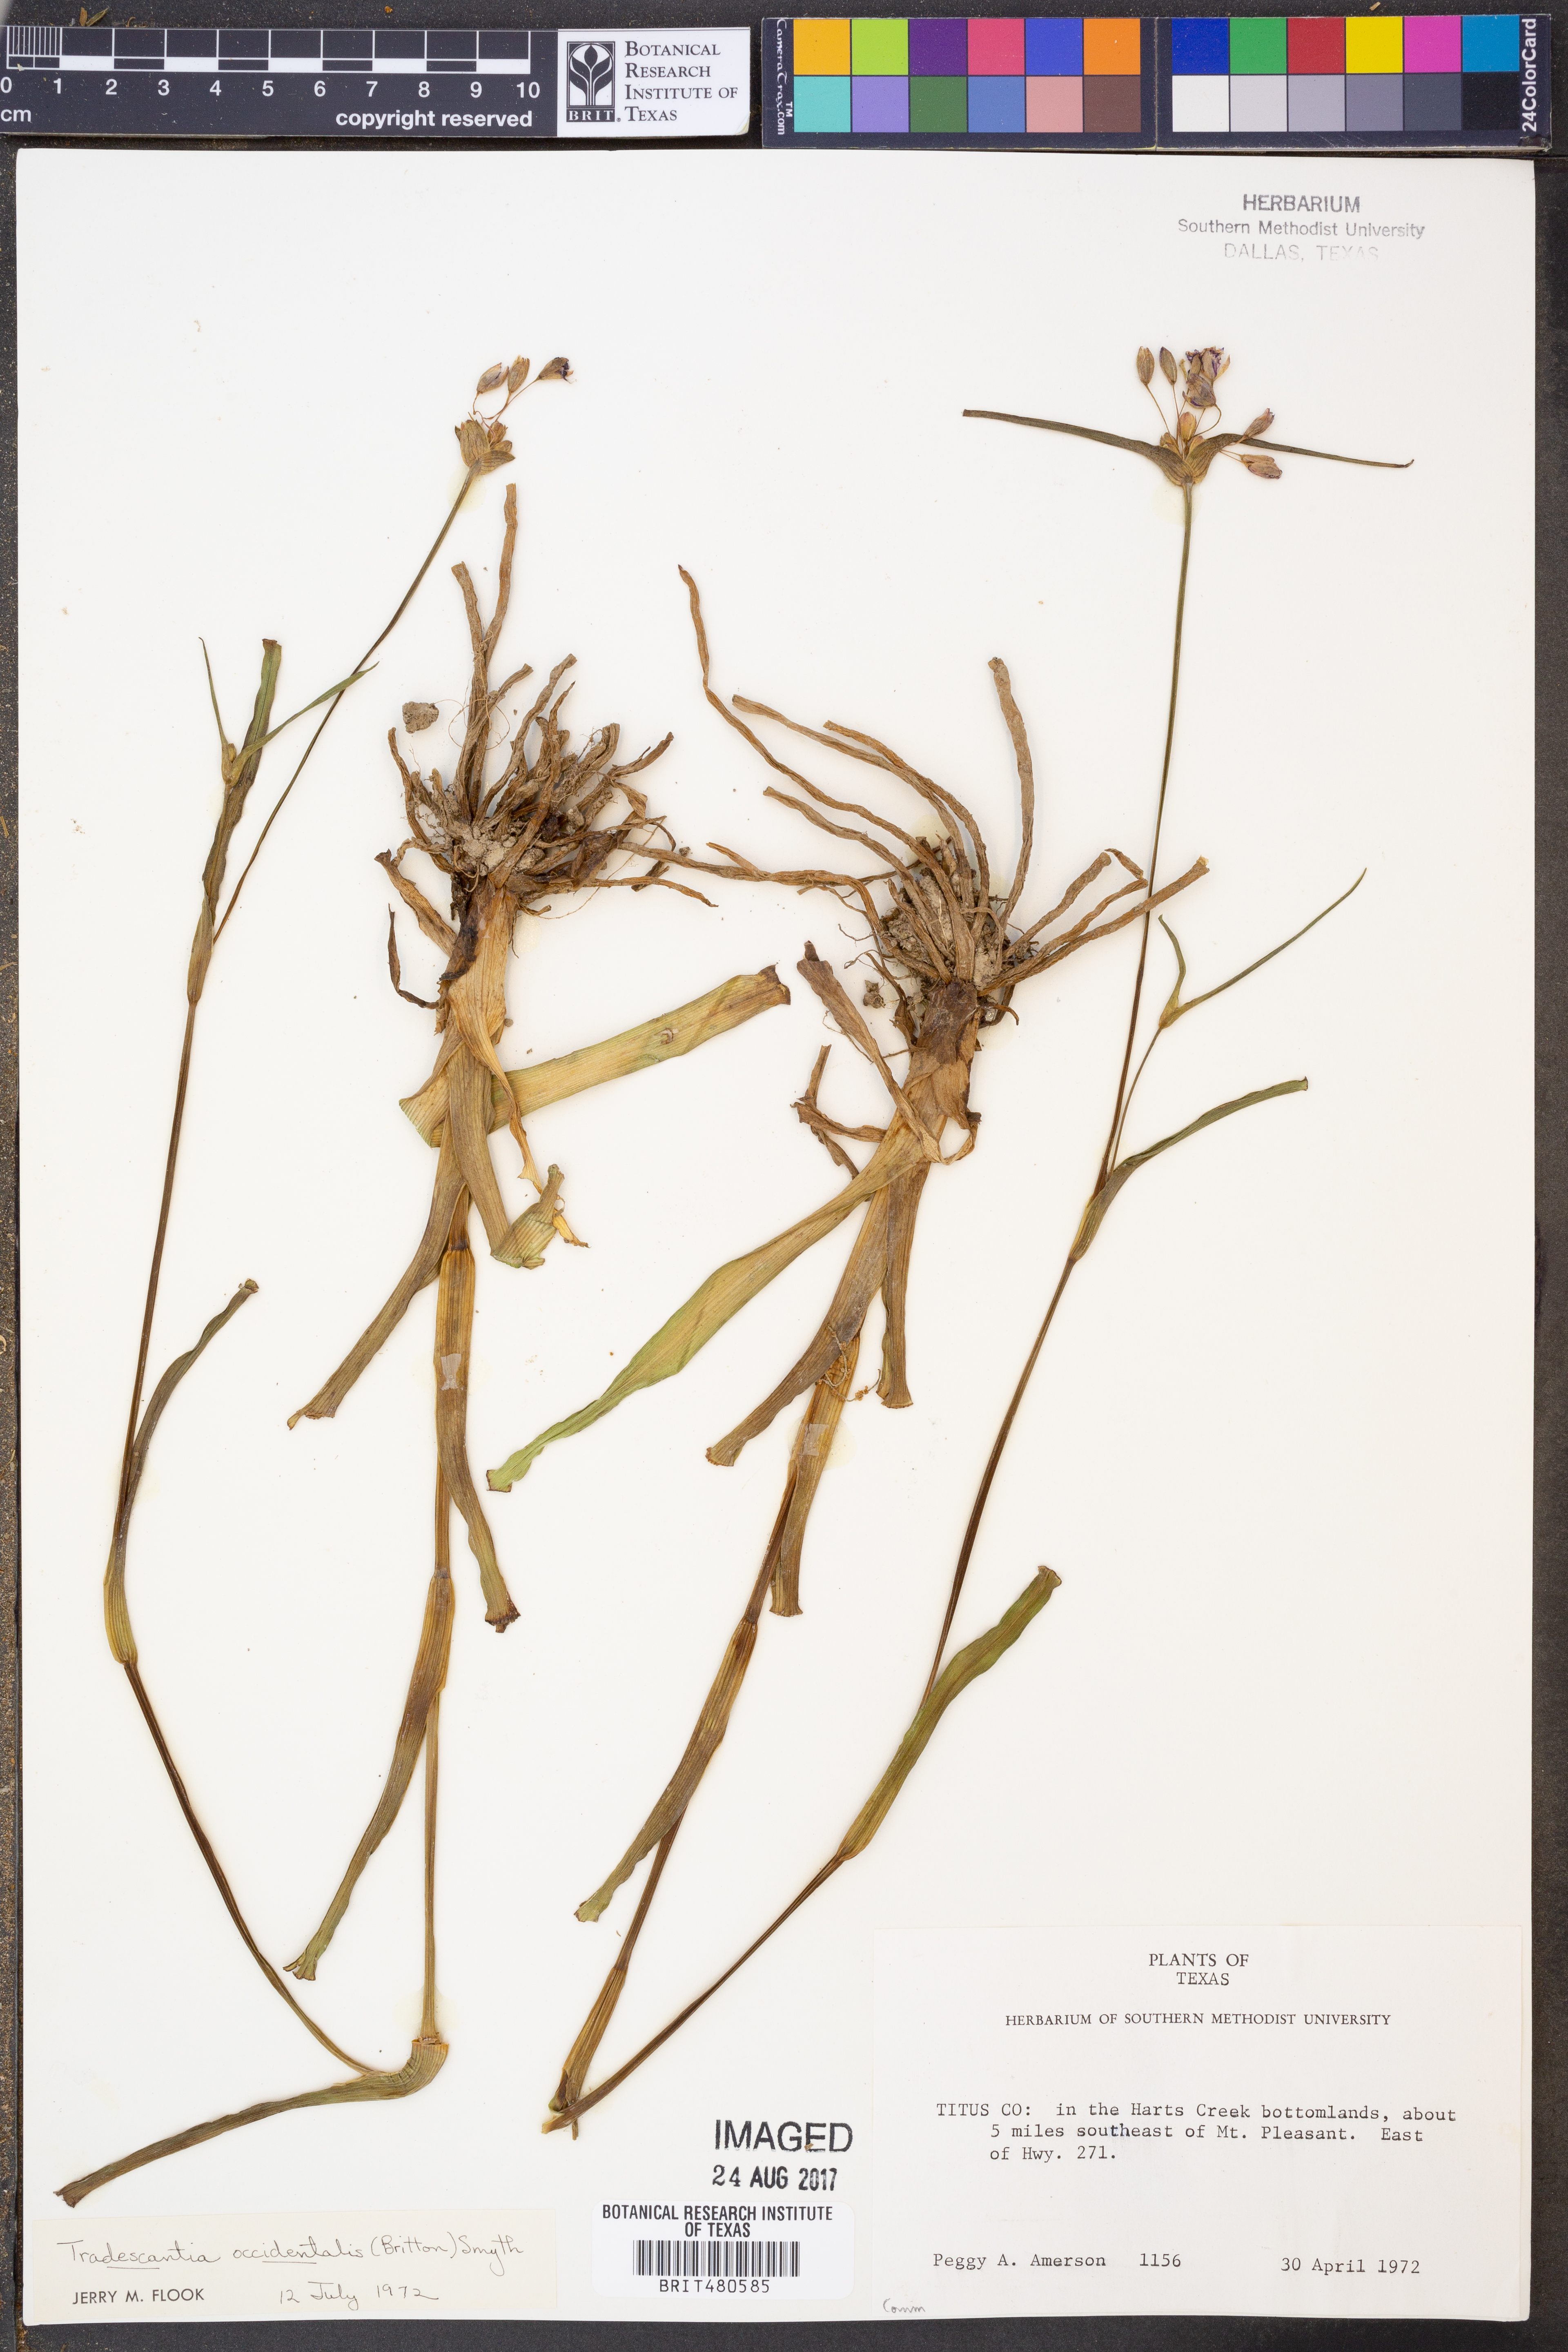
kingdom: Plantae
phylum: Tracheophyta
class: Liliopsida
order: Commelinales
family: Commelinaceae
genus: Tradescantia
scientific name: Tradescantia occidentalis
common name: Prairie spiderwort
